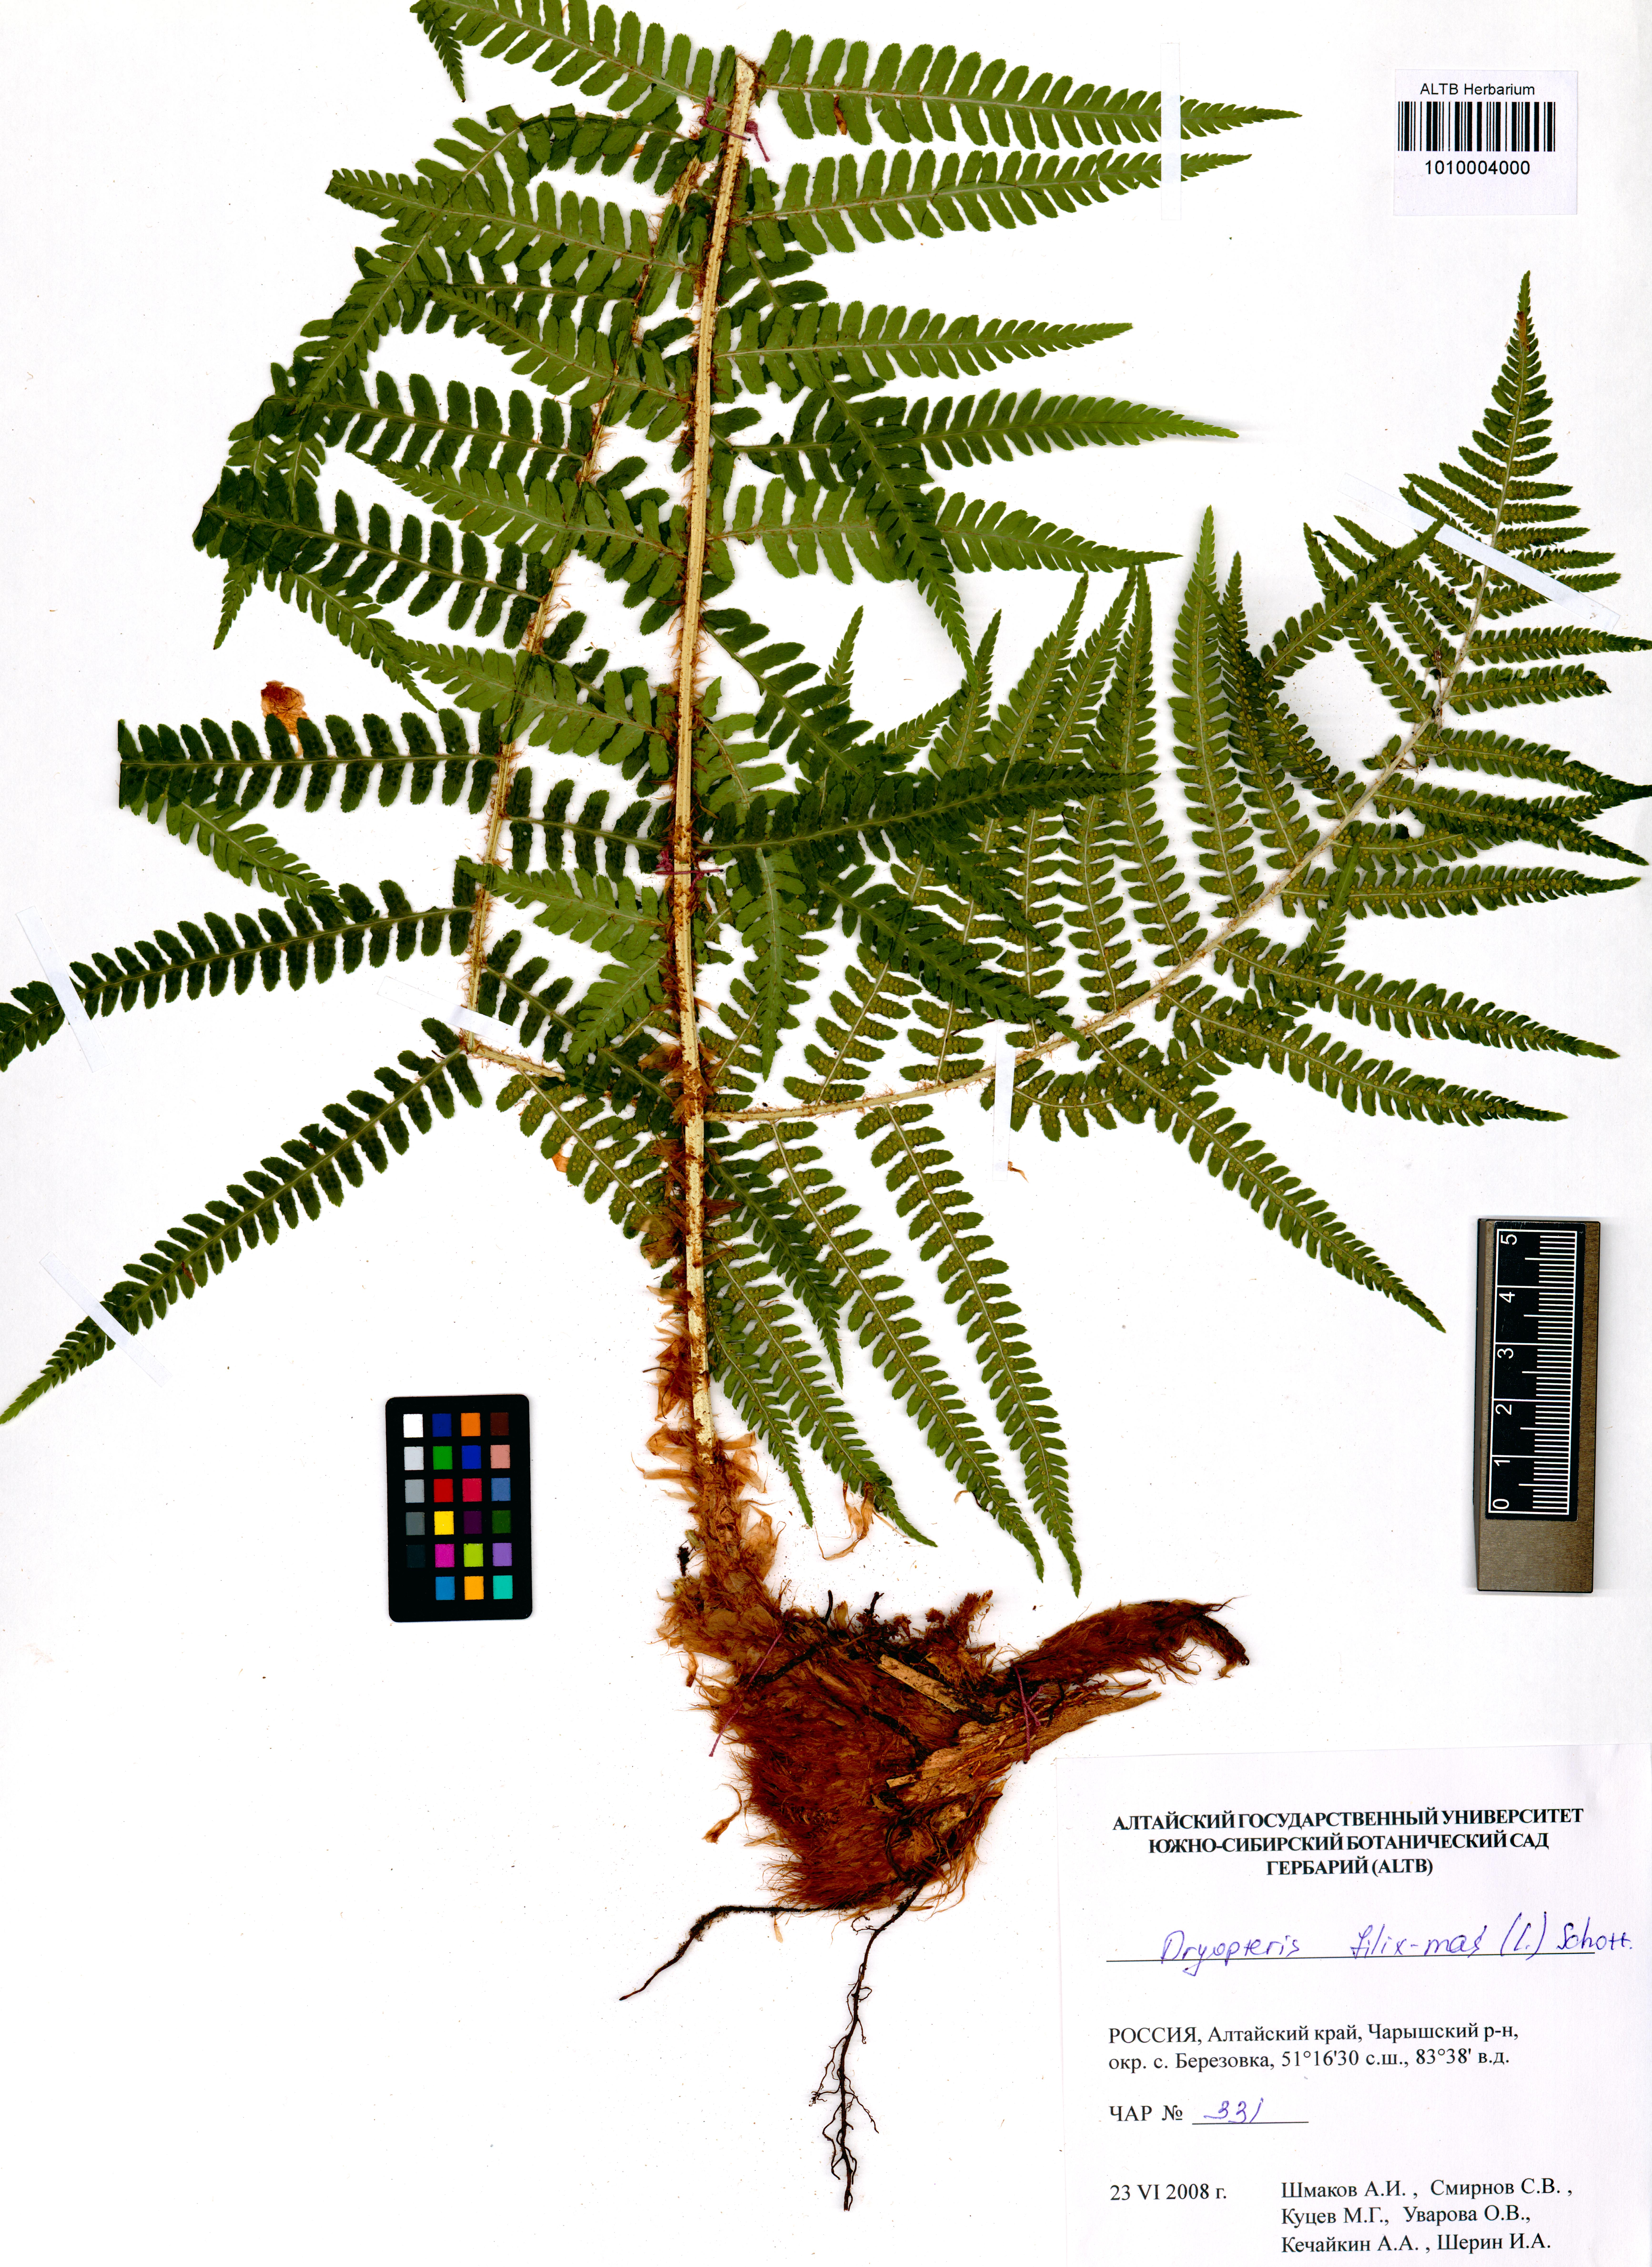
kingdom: Plantae
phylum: Tracheophyta
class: Polypodiopsida
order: Polypodiales
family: Dryopteridaceae
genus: Dryopteris
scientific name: Dryopteris filix-mas
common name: Male fern
